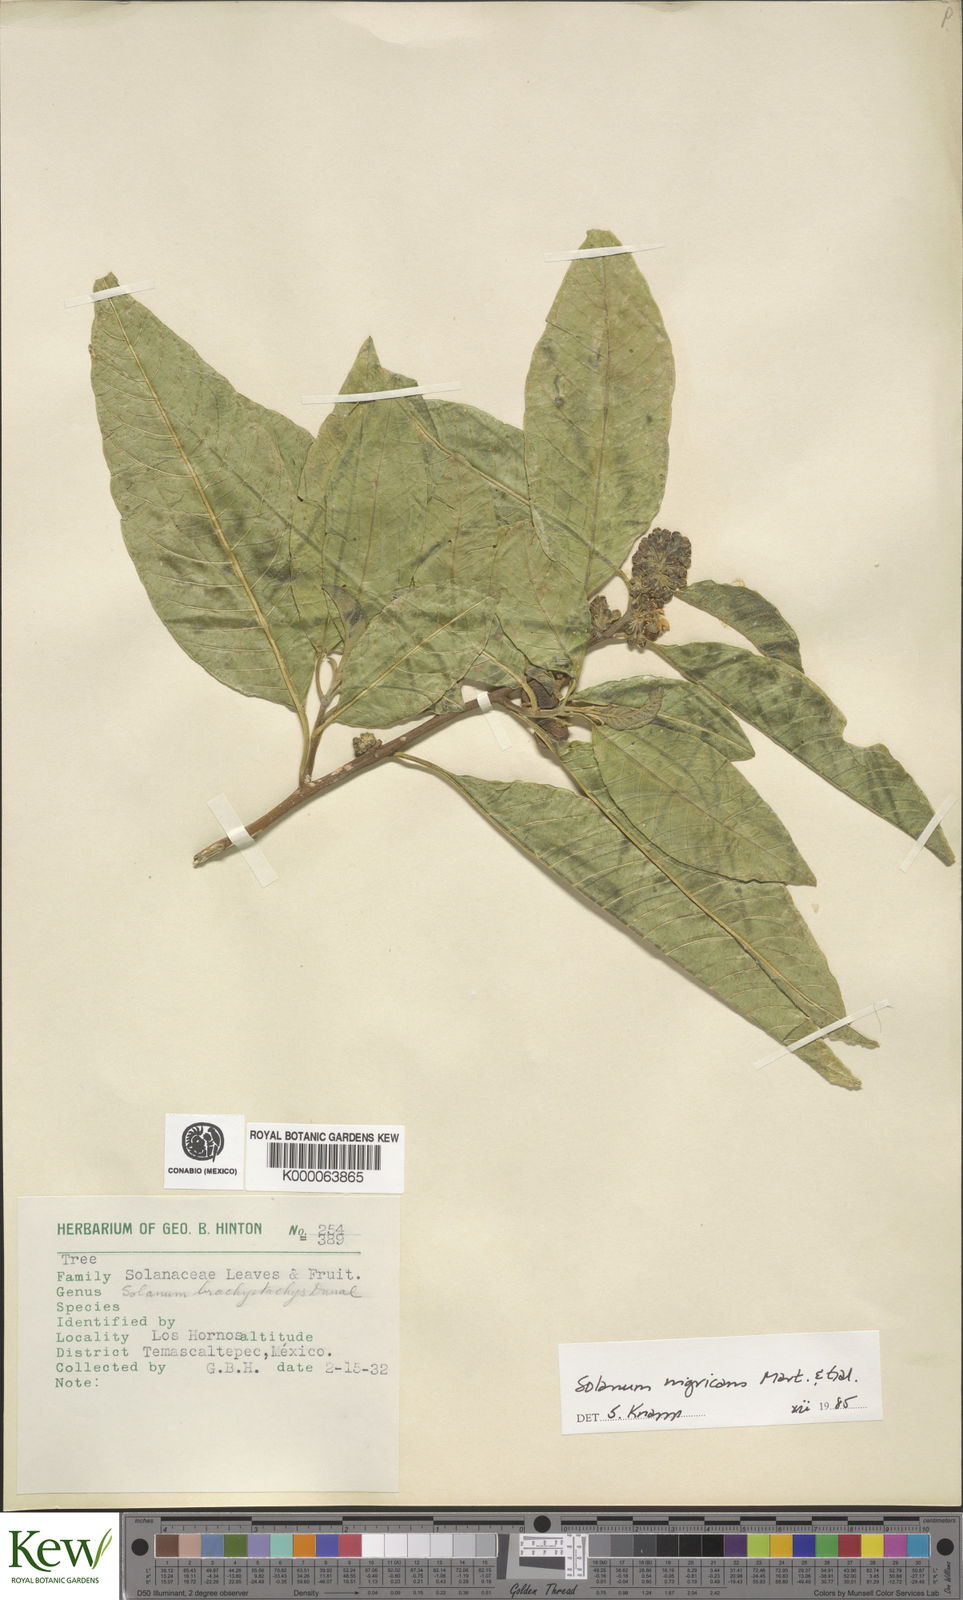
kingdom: Plantae
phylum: Tracheophyta
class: Magnoliopsida
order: Solanales
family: Solanaceae
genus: Solanum
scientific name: Solanum nigricans
